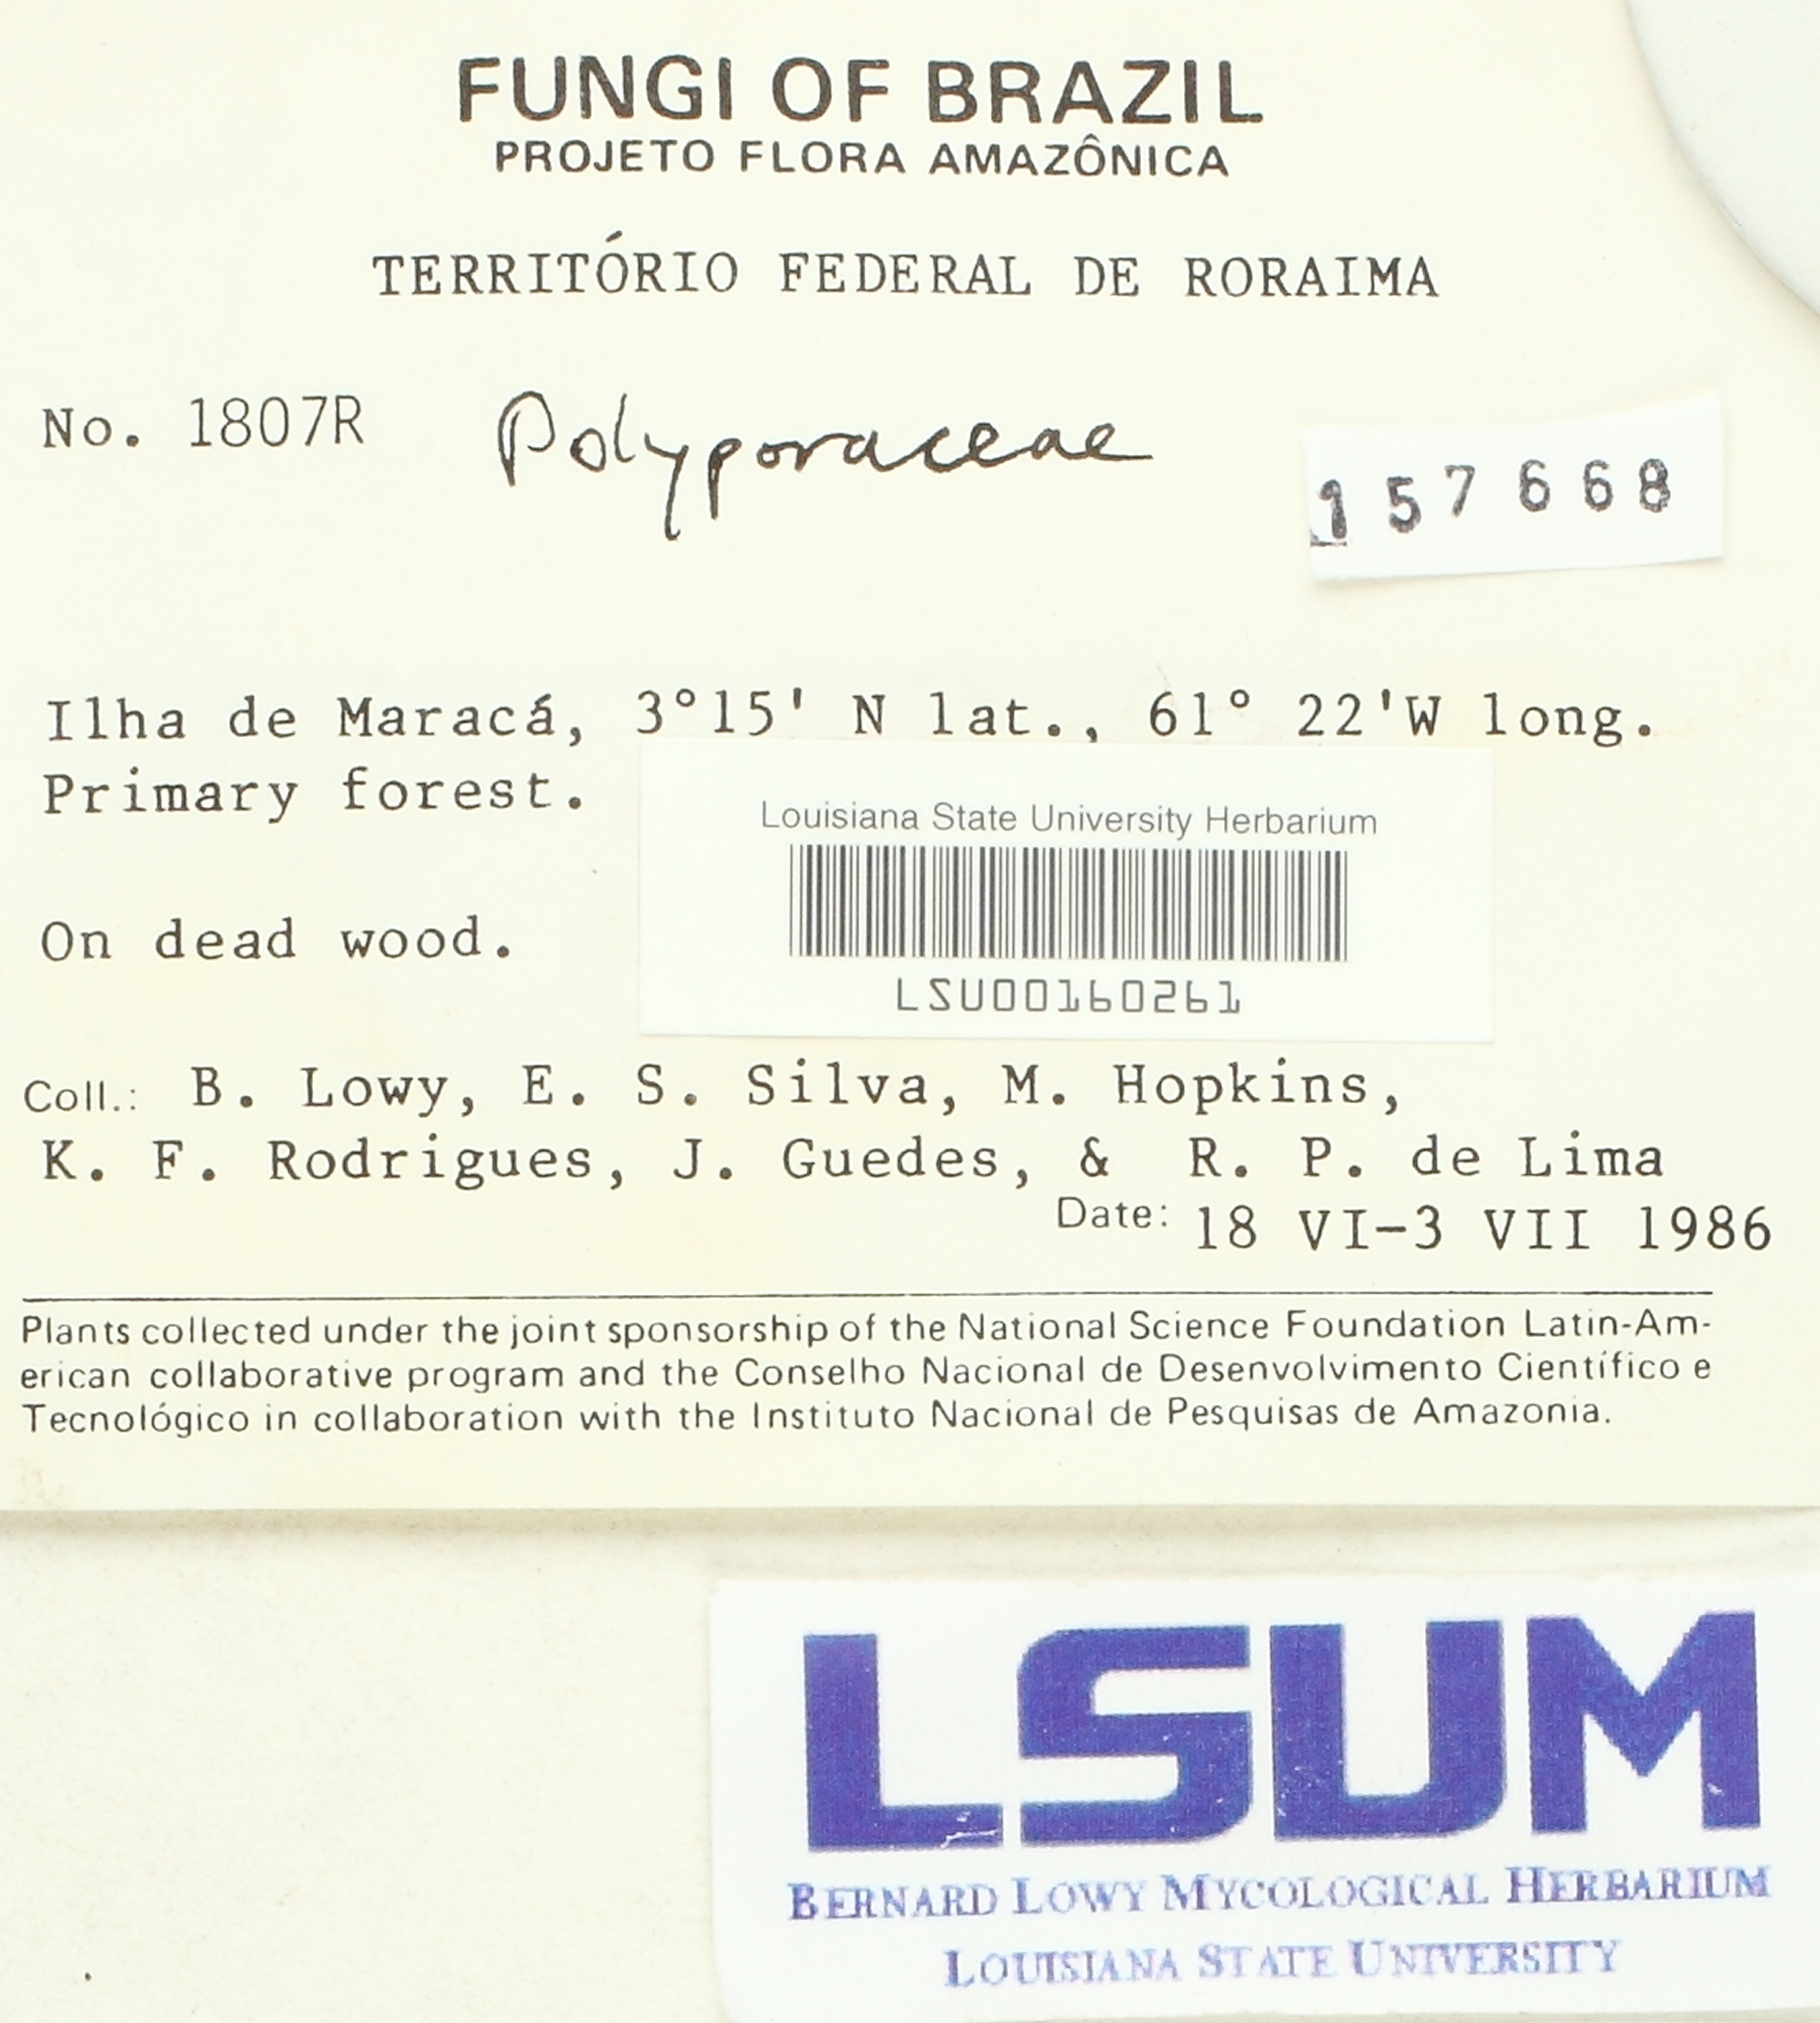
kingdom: Fungi
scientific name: Fungi
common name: Fungi
